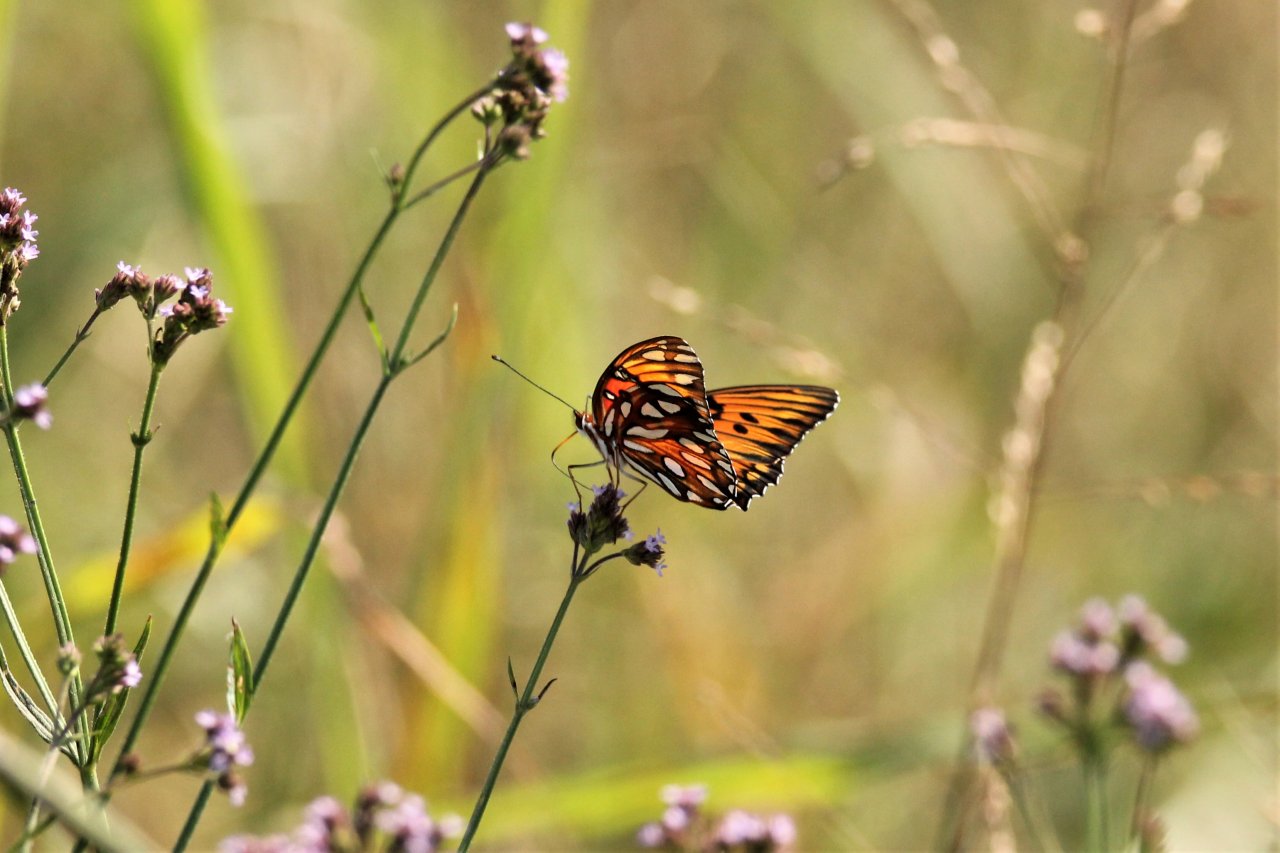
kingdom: Animalia
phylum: Arthropoda
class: Insecta
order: Lepidoptera
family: Nymphalidae
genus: Dione
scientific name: Dione vanillae
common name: Gulf Fritillary
